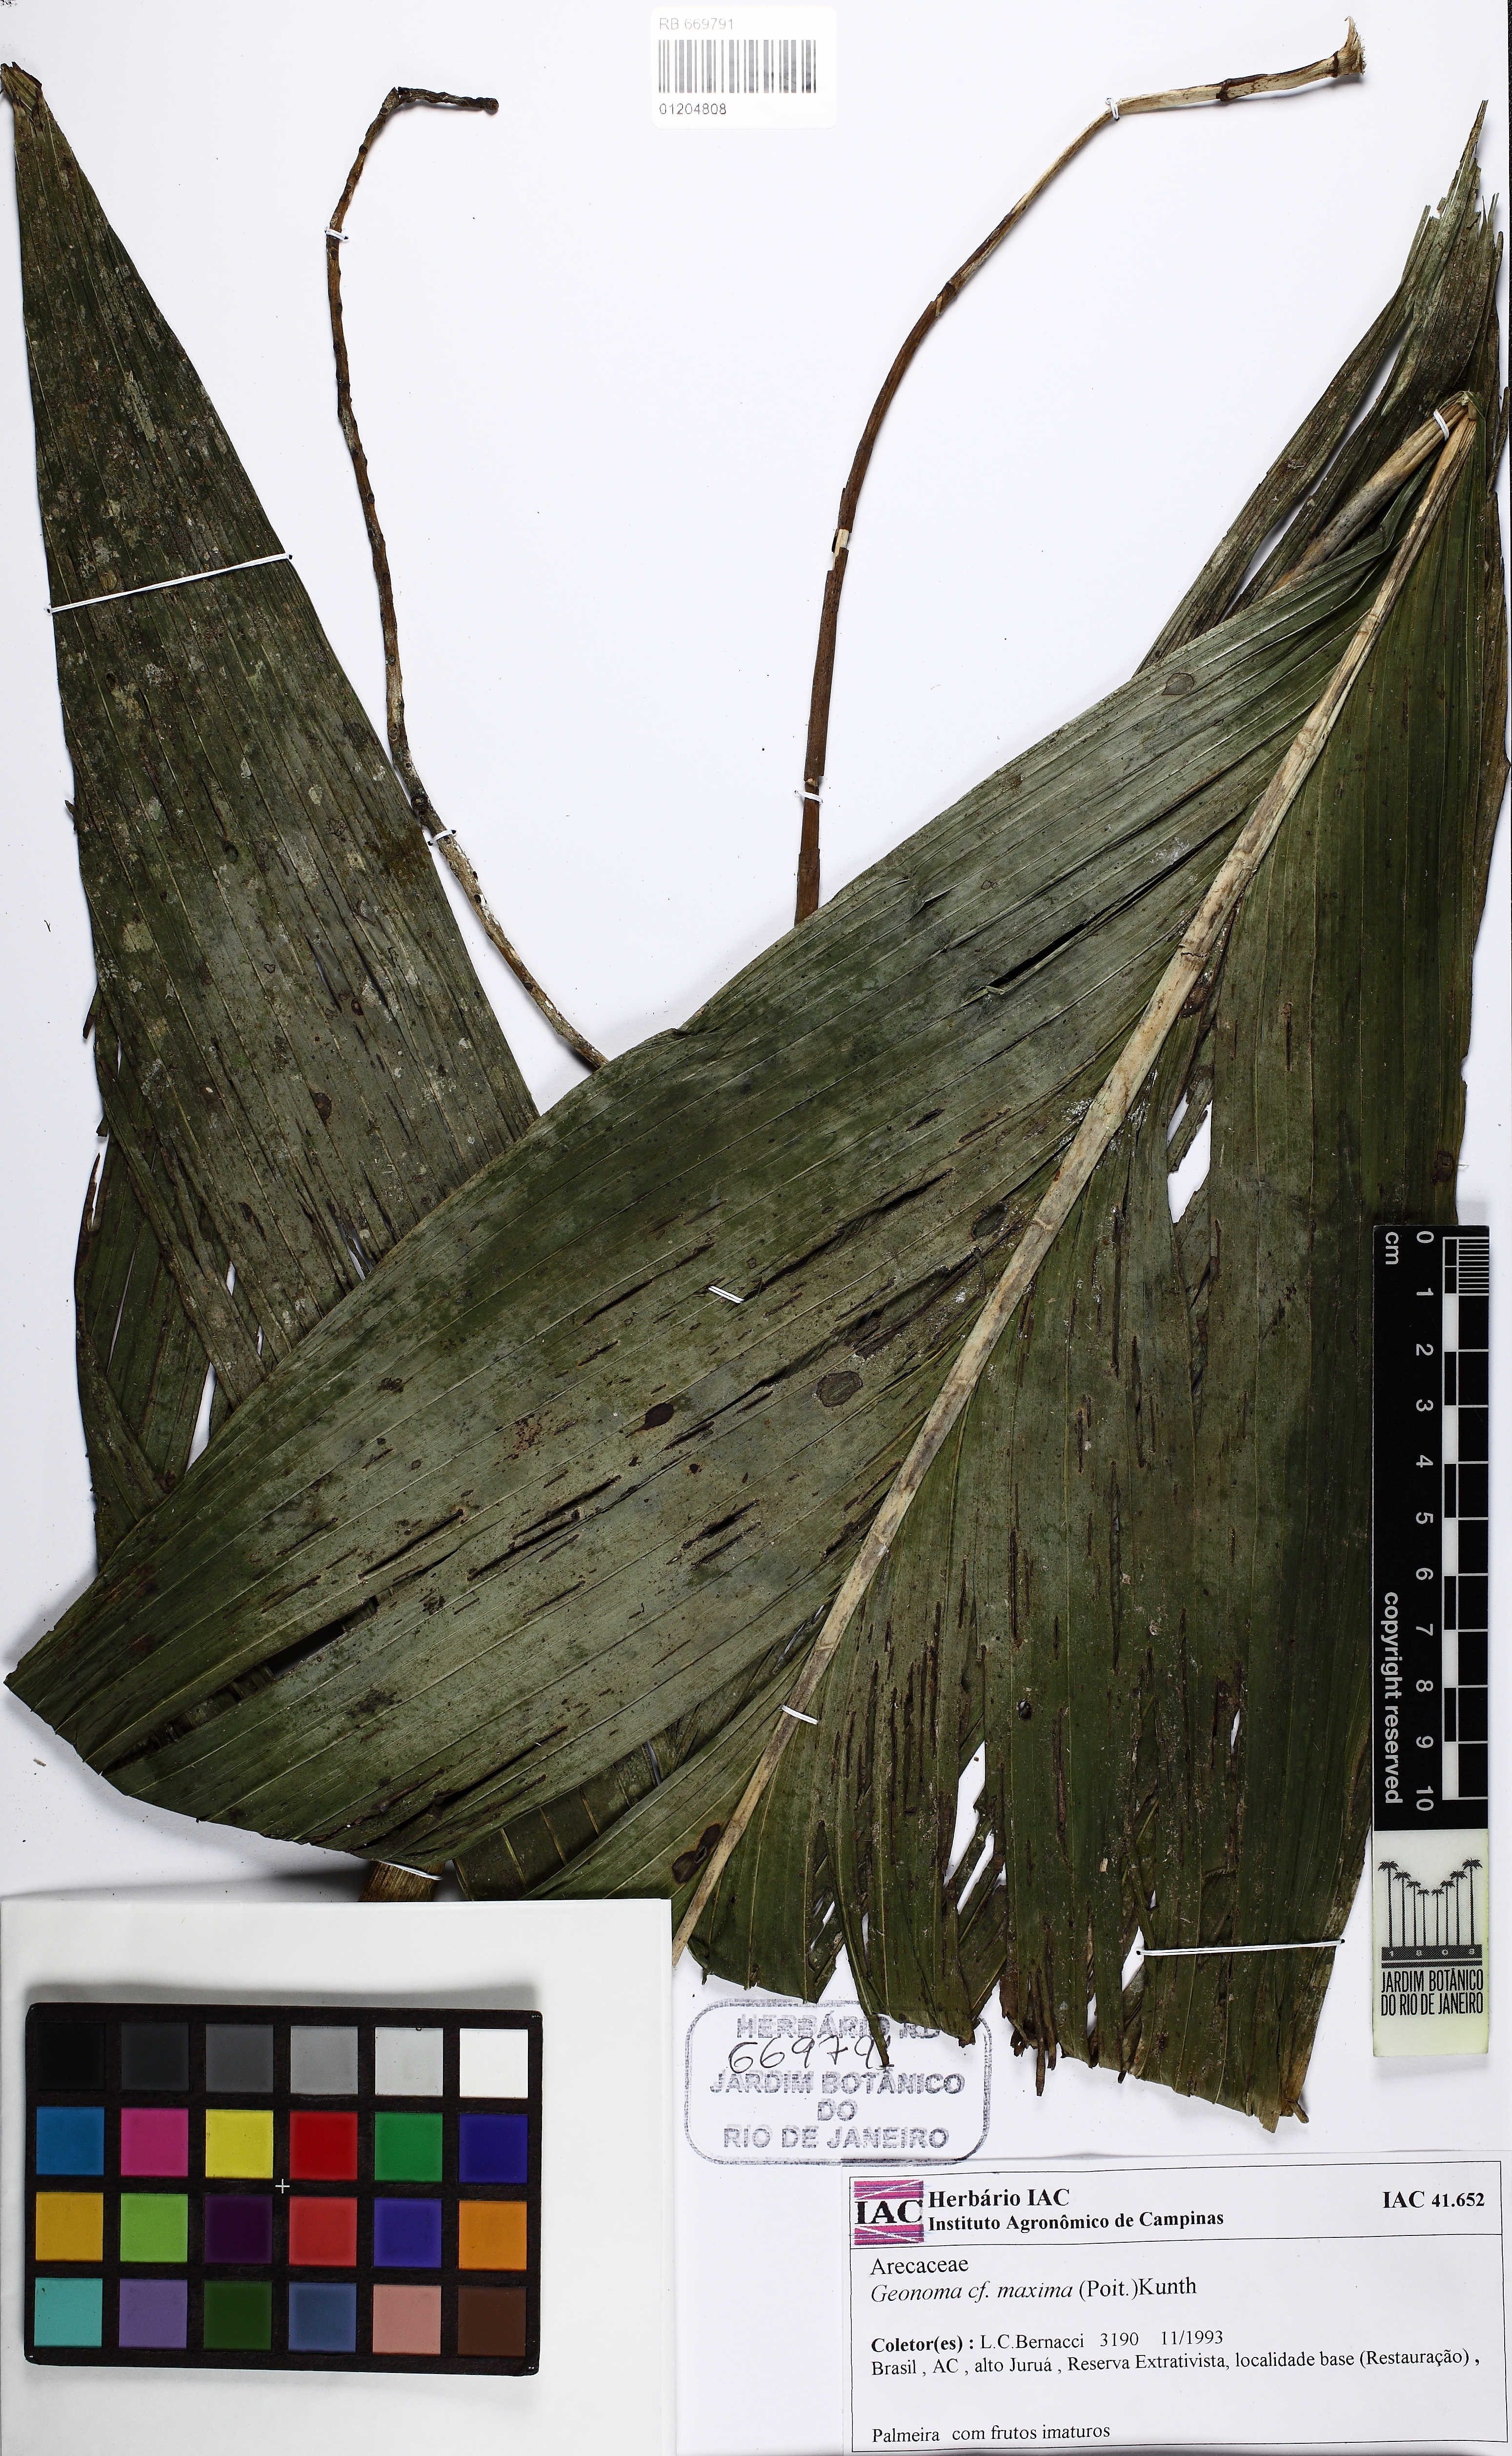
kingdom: Plantae
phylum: Tracheophyta
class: Liliopsida
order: Arecales
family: Arecaceae
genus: Geonoma
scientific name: Geonoma maxima
